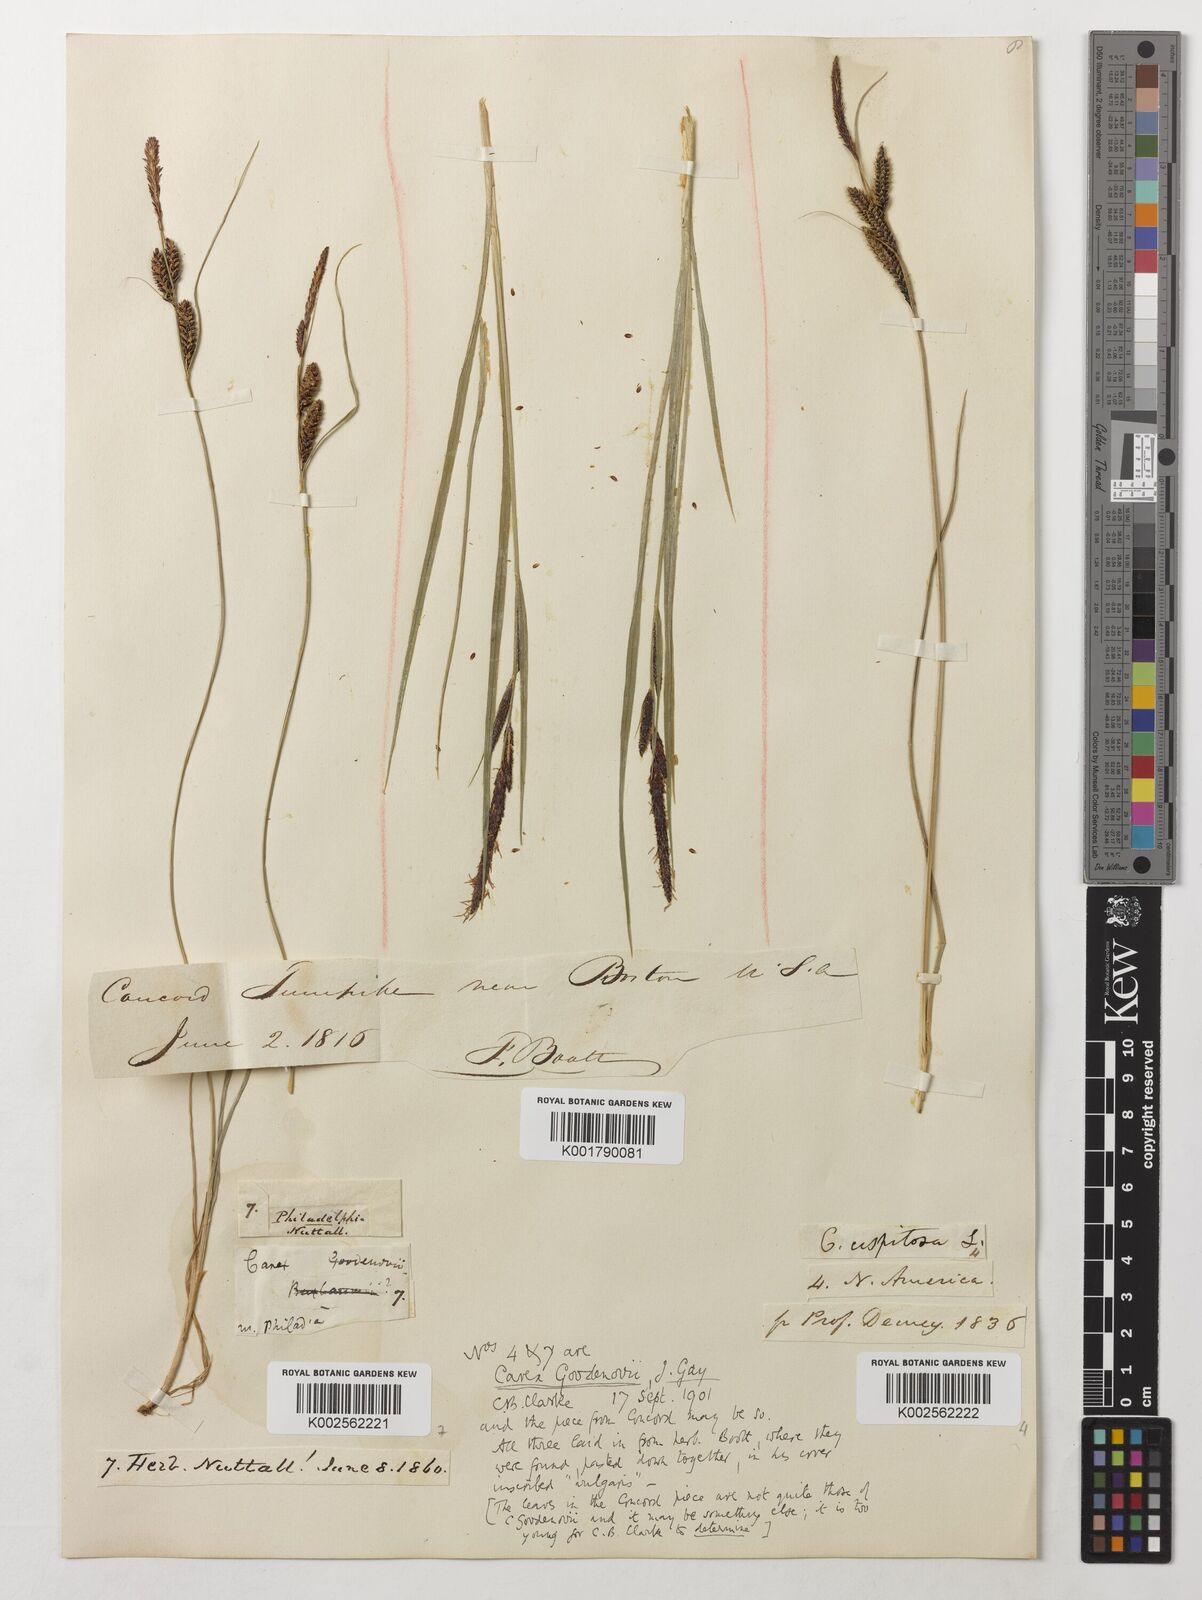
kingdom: Plantae
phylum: Tracheophyta
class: Liliopsida
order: Poales
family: Cyperaceae
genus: Carex
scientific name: Carex nigra
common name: Common sedge
